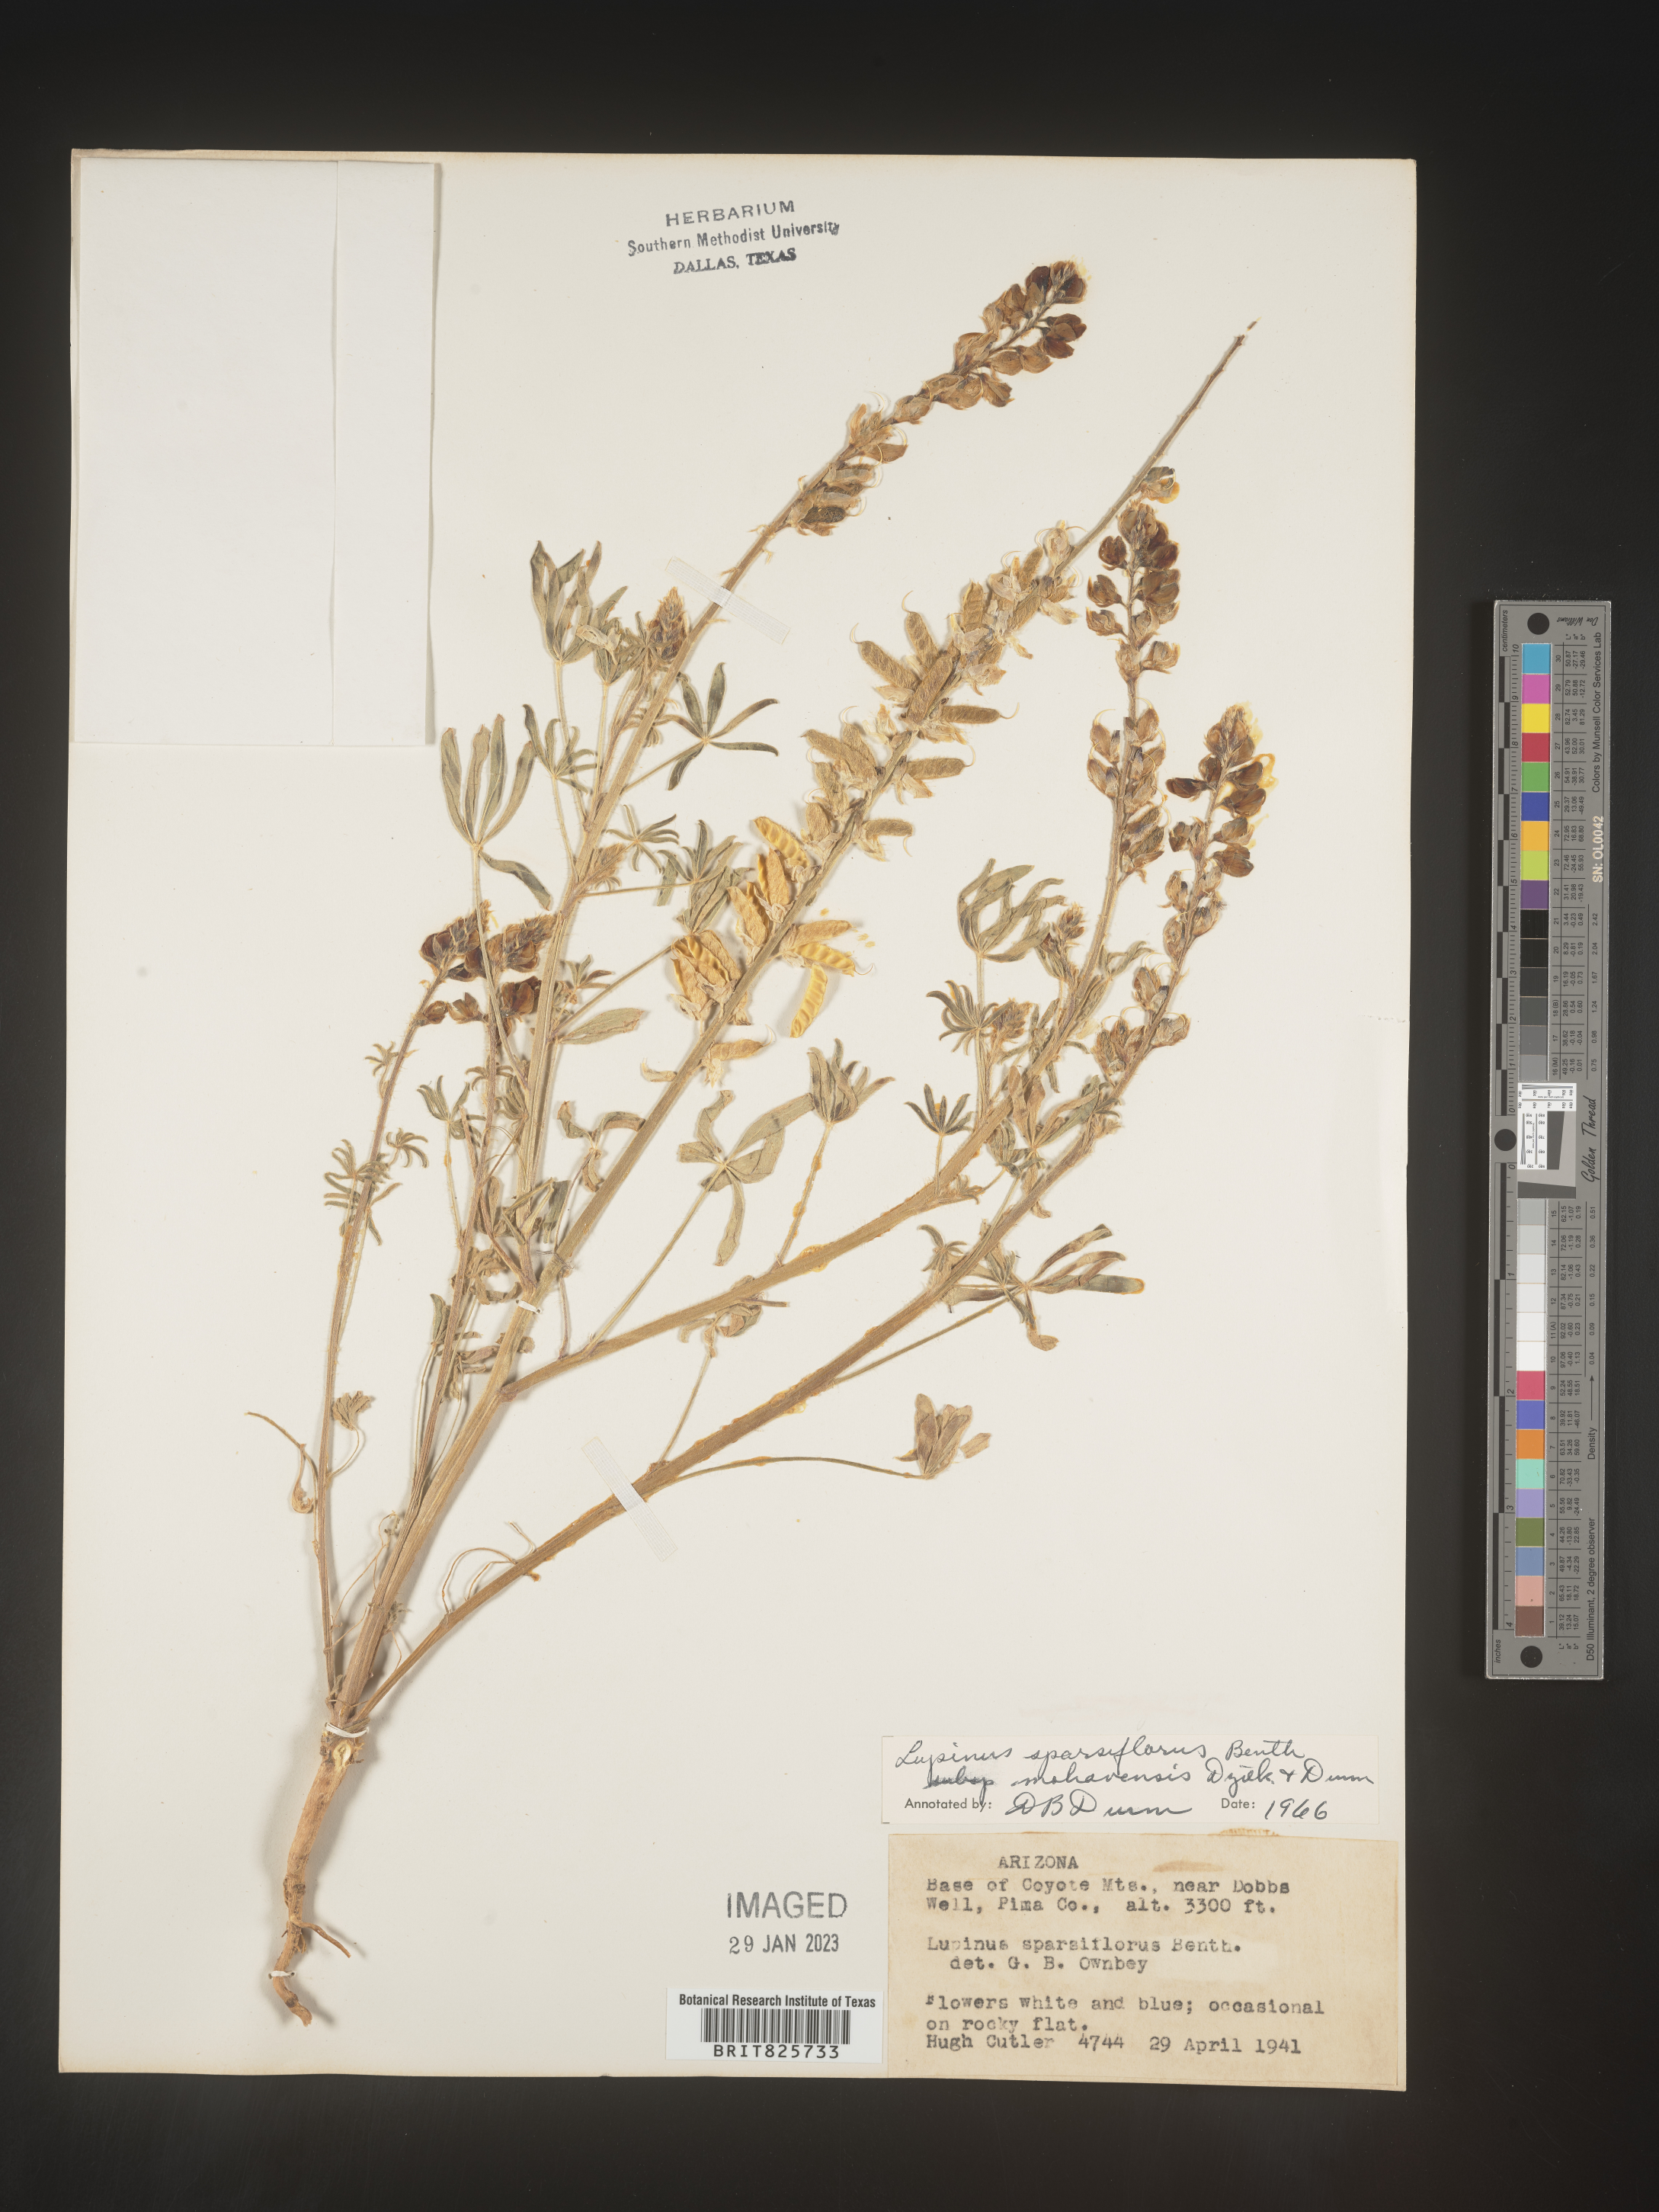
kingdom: Plantae
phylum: Tracheophyta
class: Magnoliopsida
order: Fabales
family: Fabaceae
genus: Lupinus
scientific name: Lupinus
